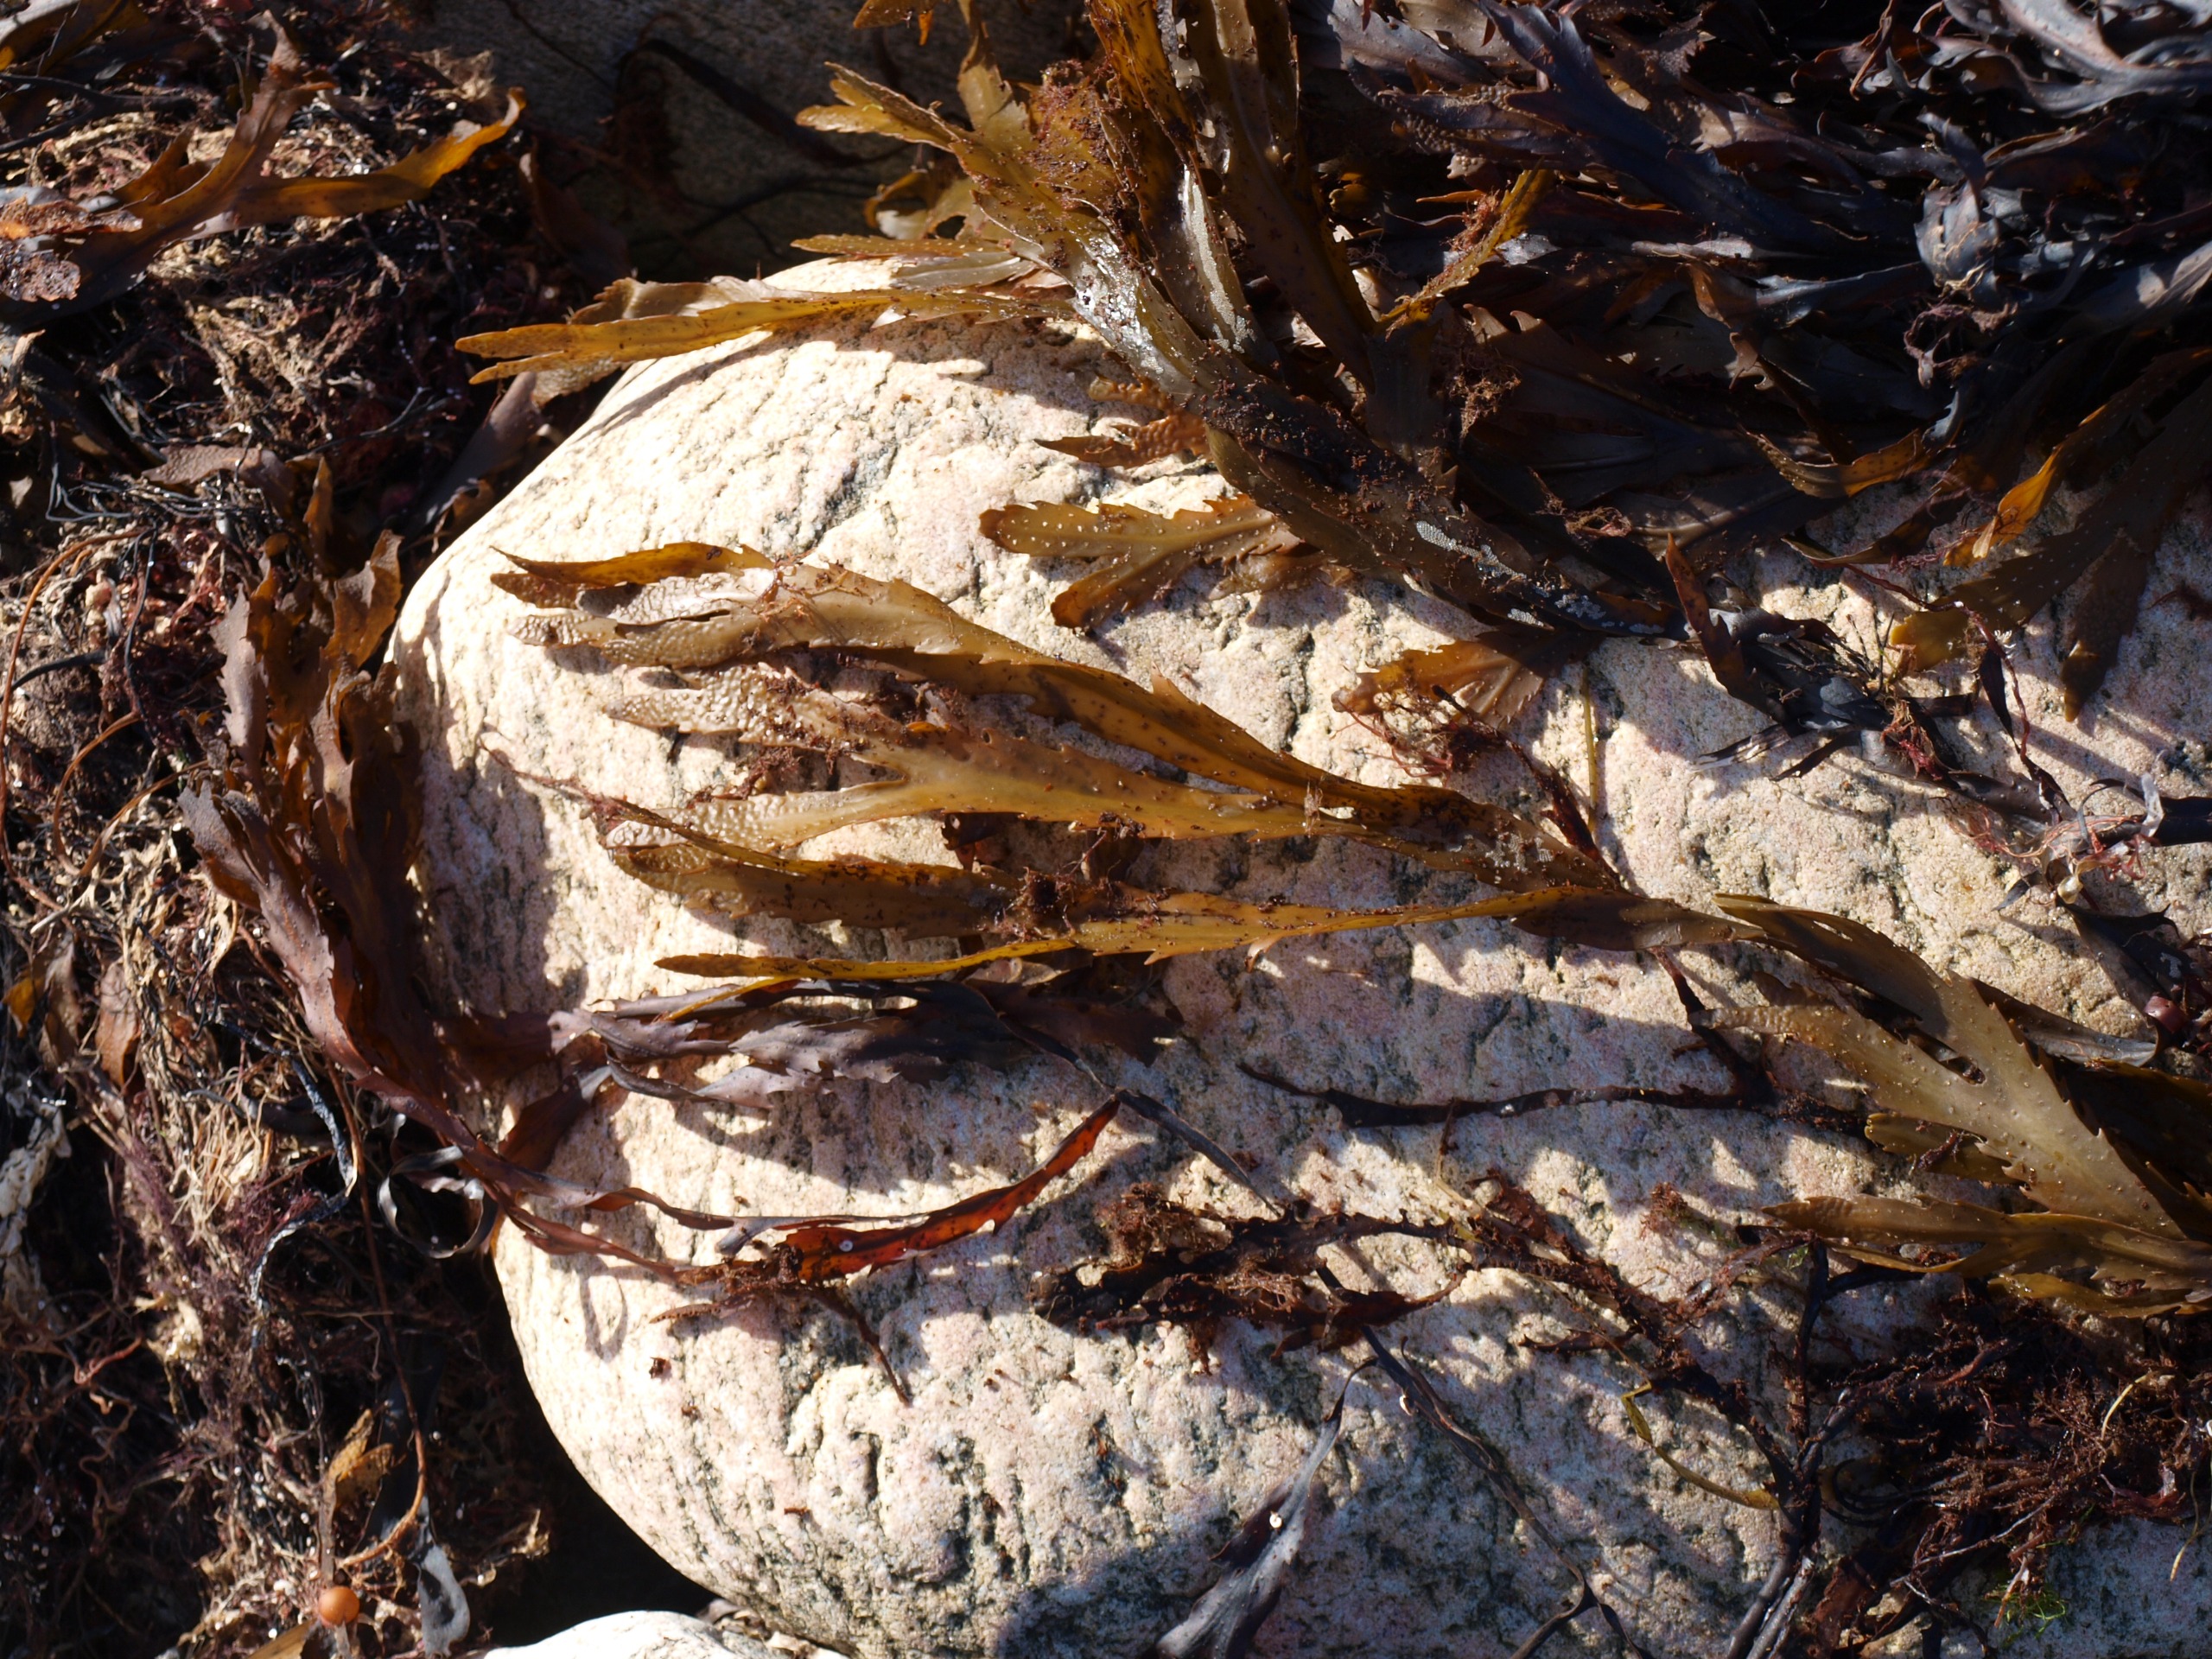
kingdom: Chromista
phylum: Ochrophyta
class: Phaeophyceae
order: Fucales
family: Fucaceae
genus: Fucus
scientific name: Fucus serratus
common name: Savtang
